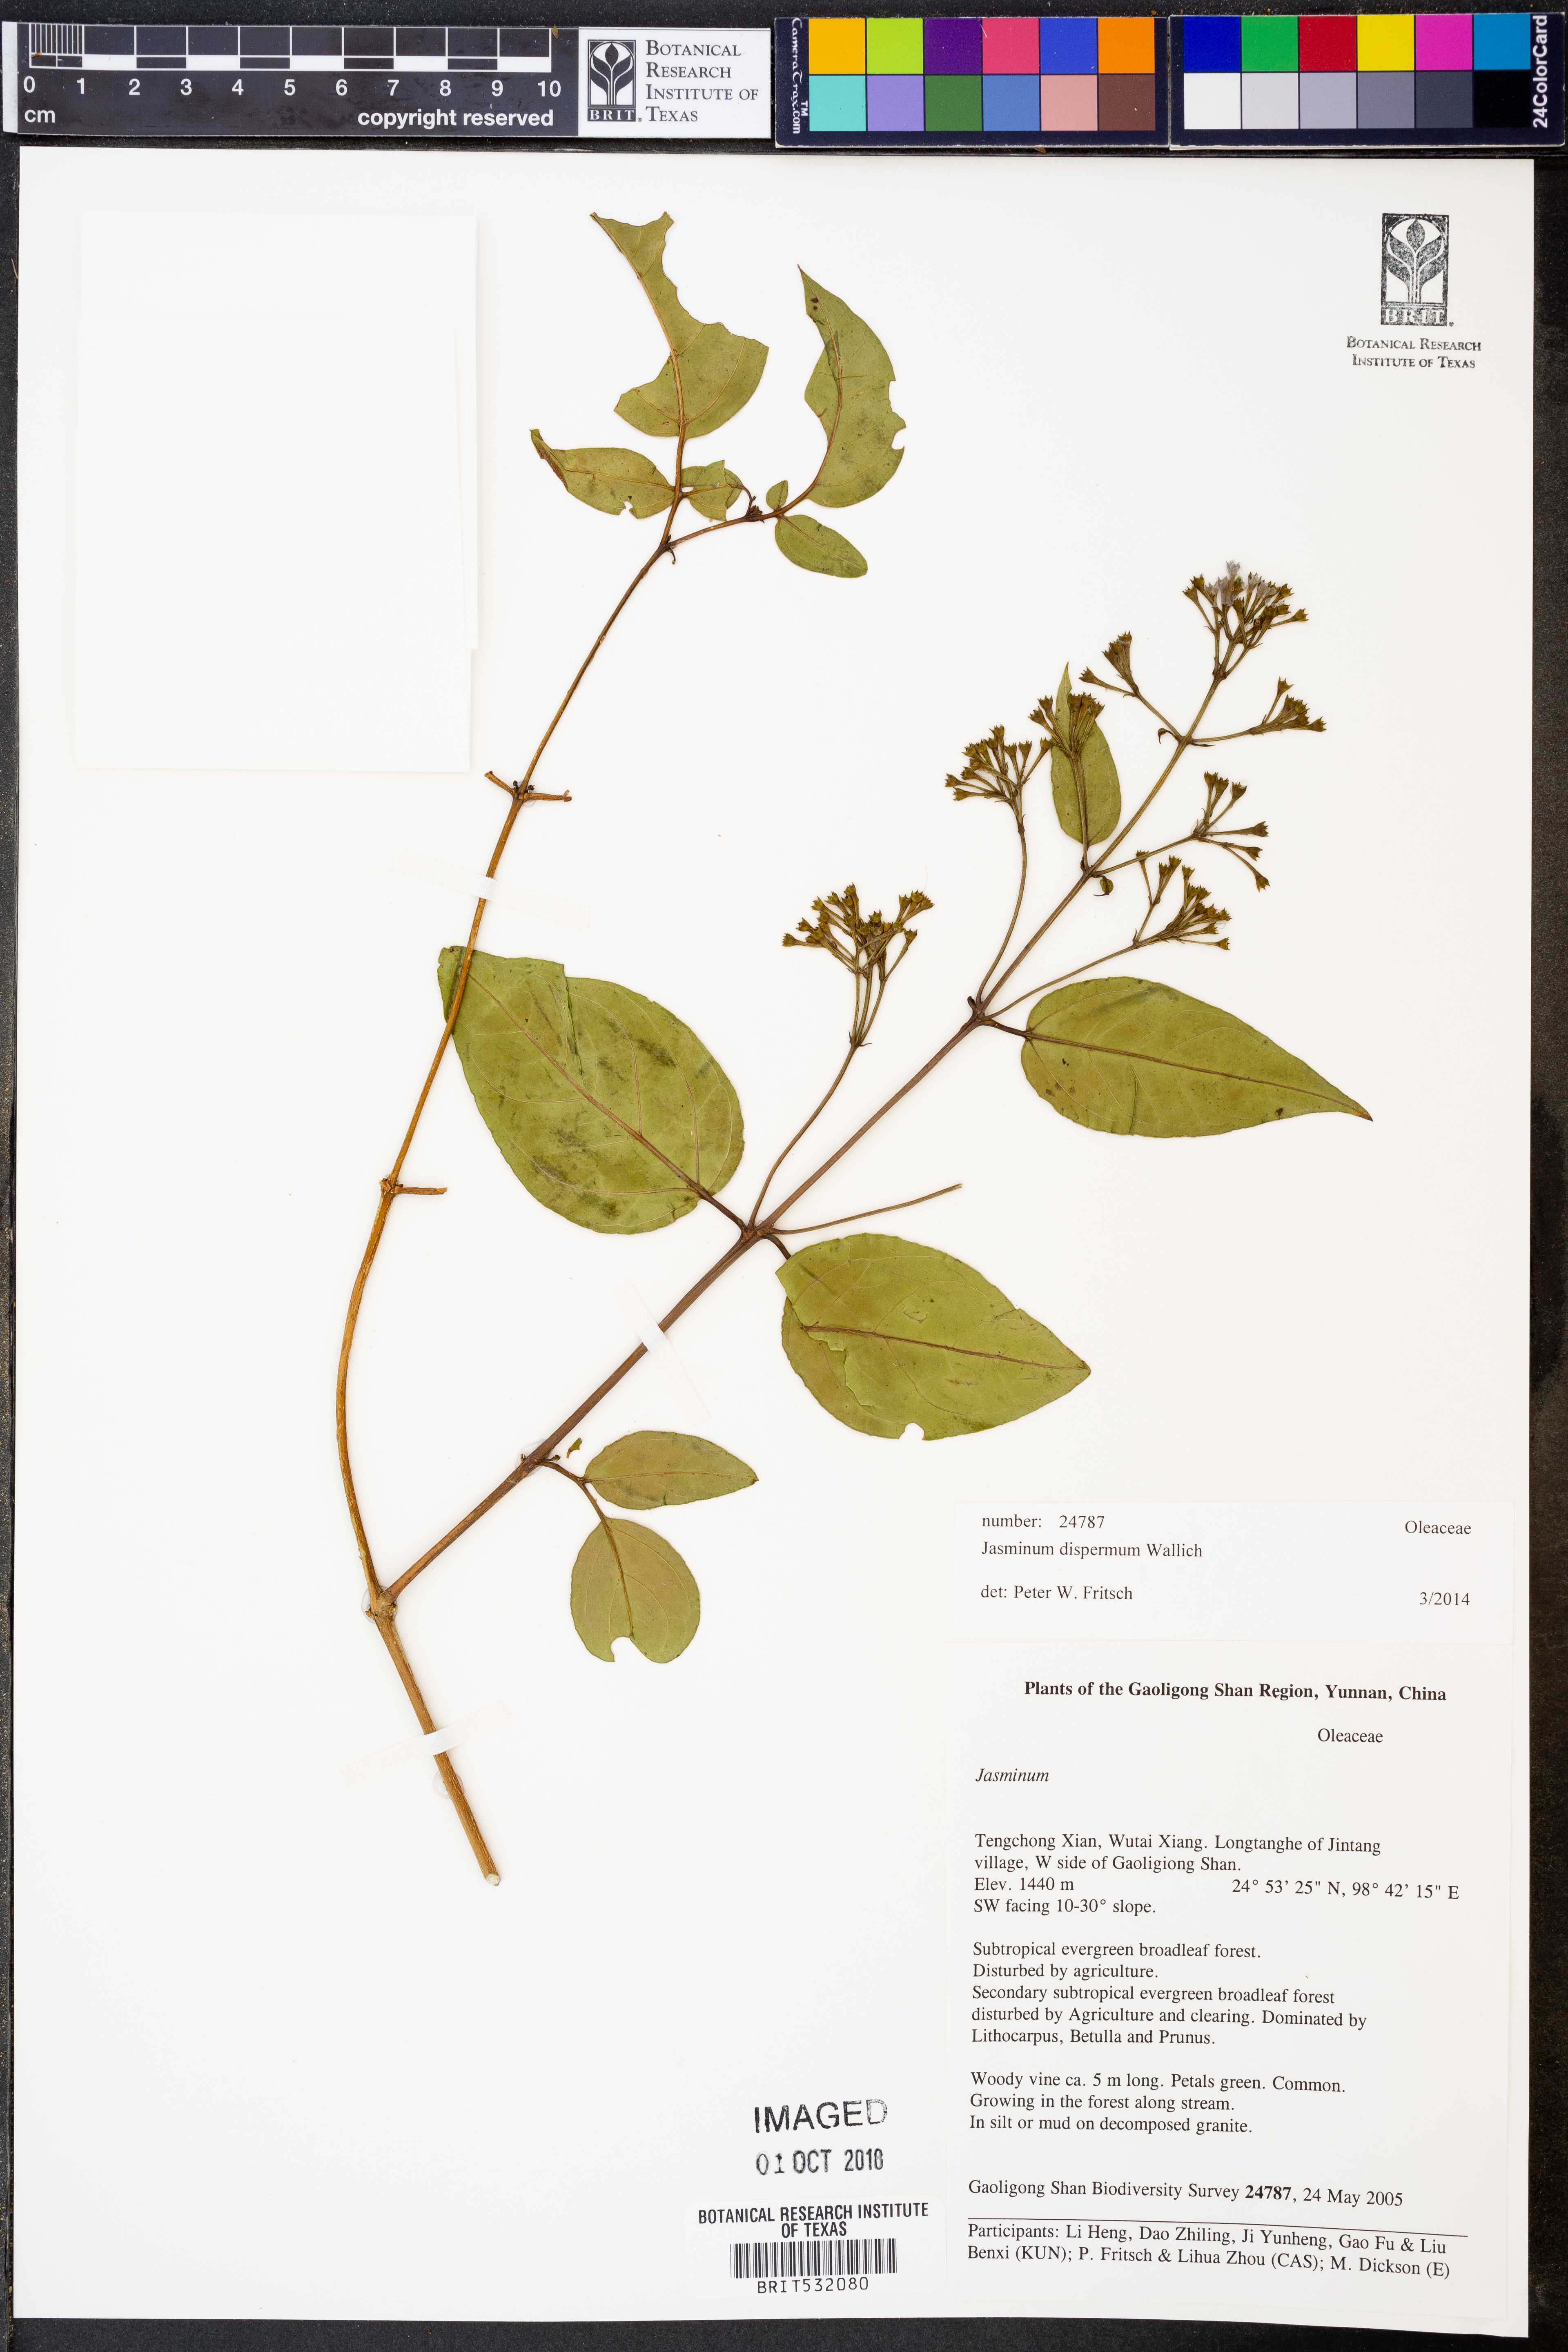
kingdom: Plantae
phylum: Tracheophyta
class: Magnoliopsida
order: Lamiales
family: Oleaceae
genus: Jasminum
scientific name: Jasminum dispermum
